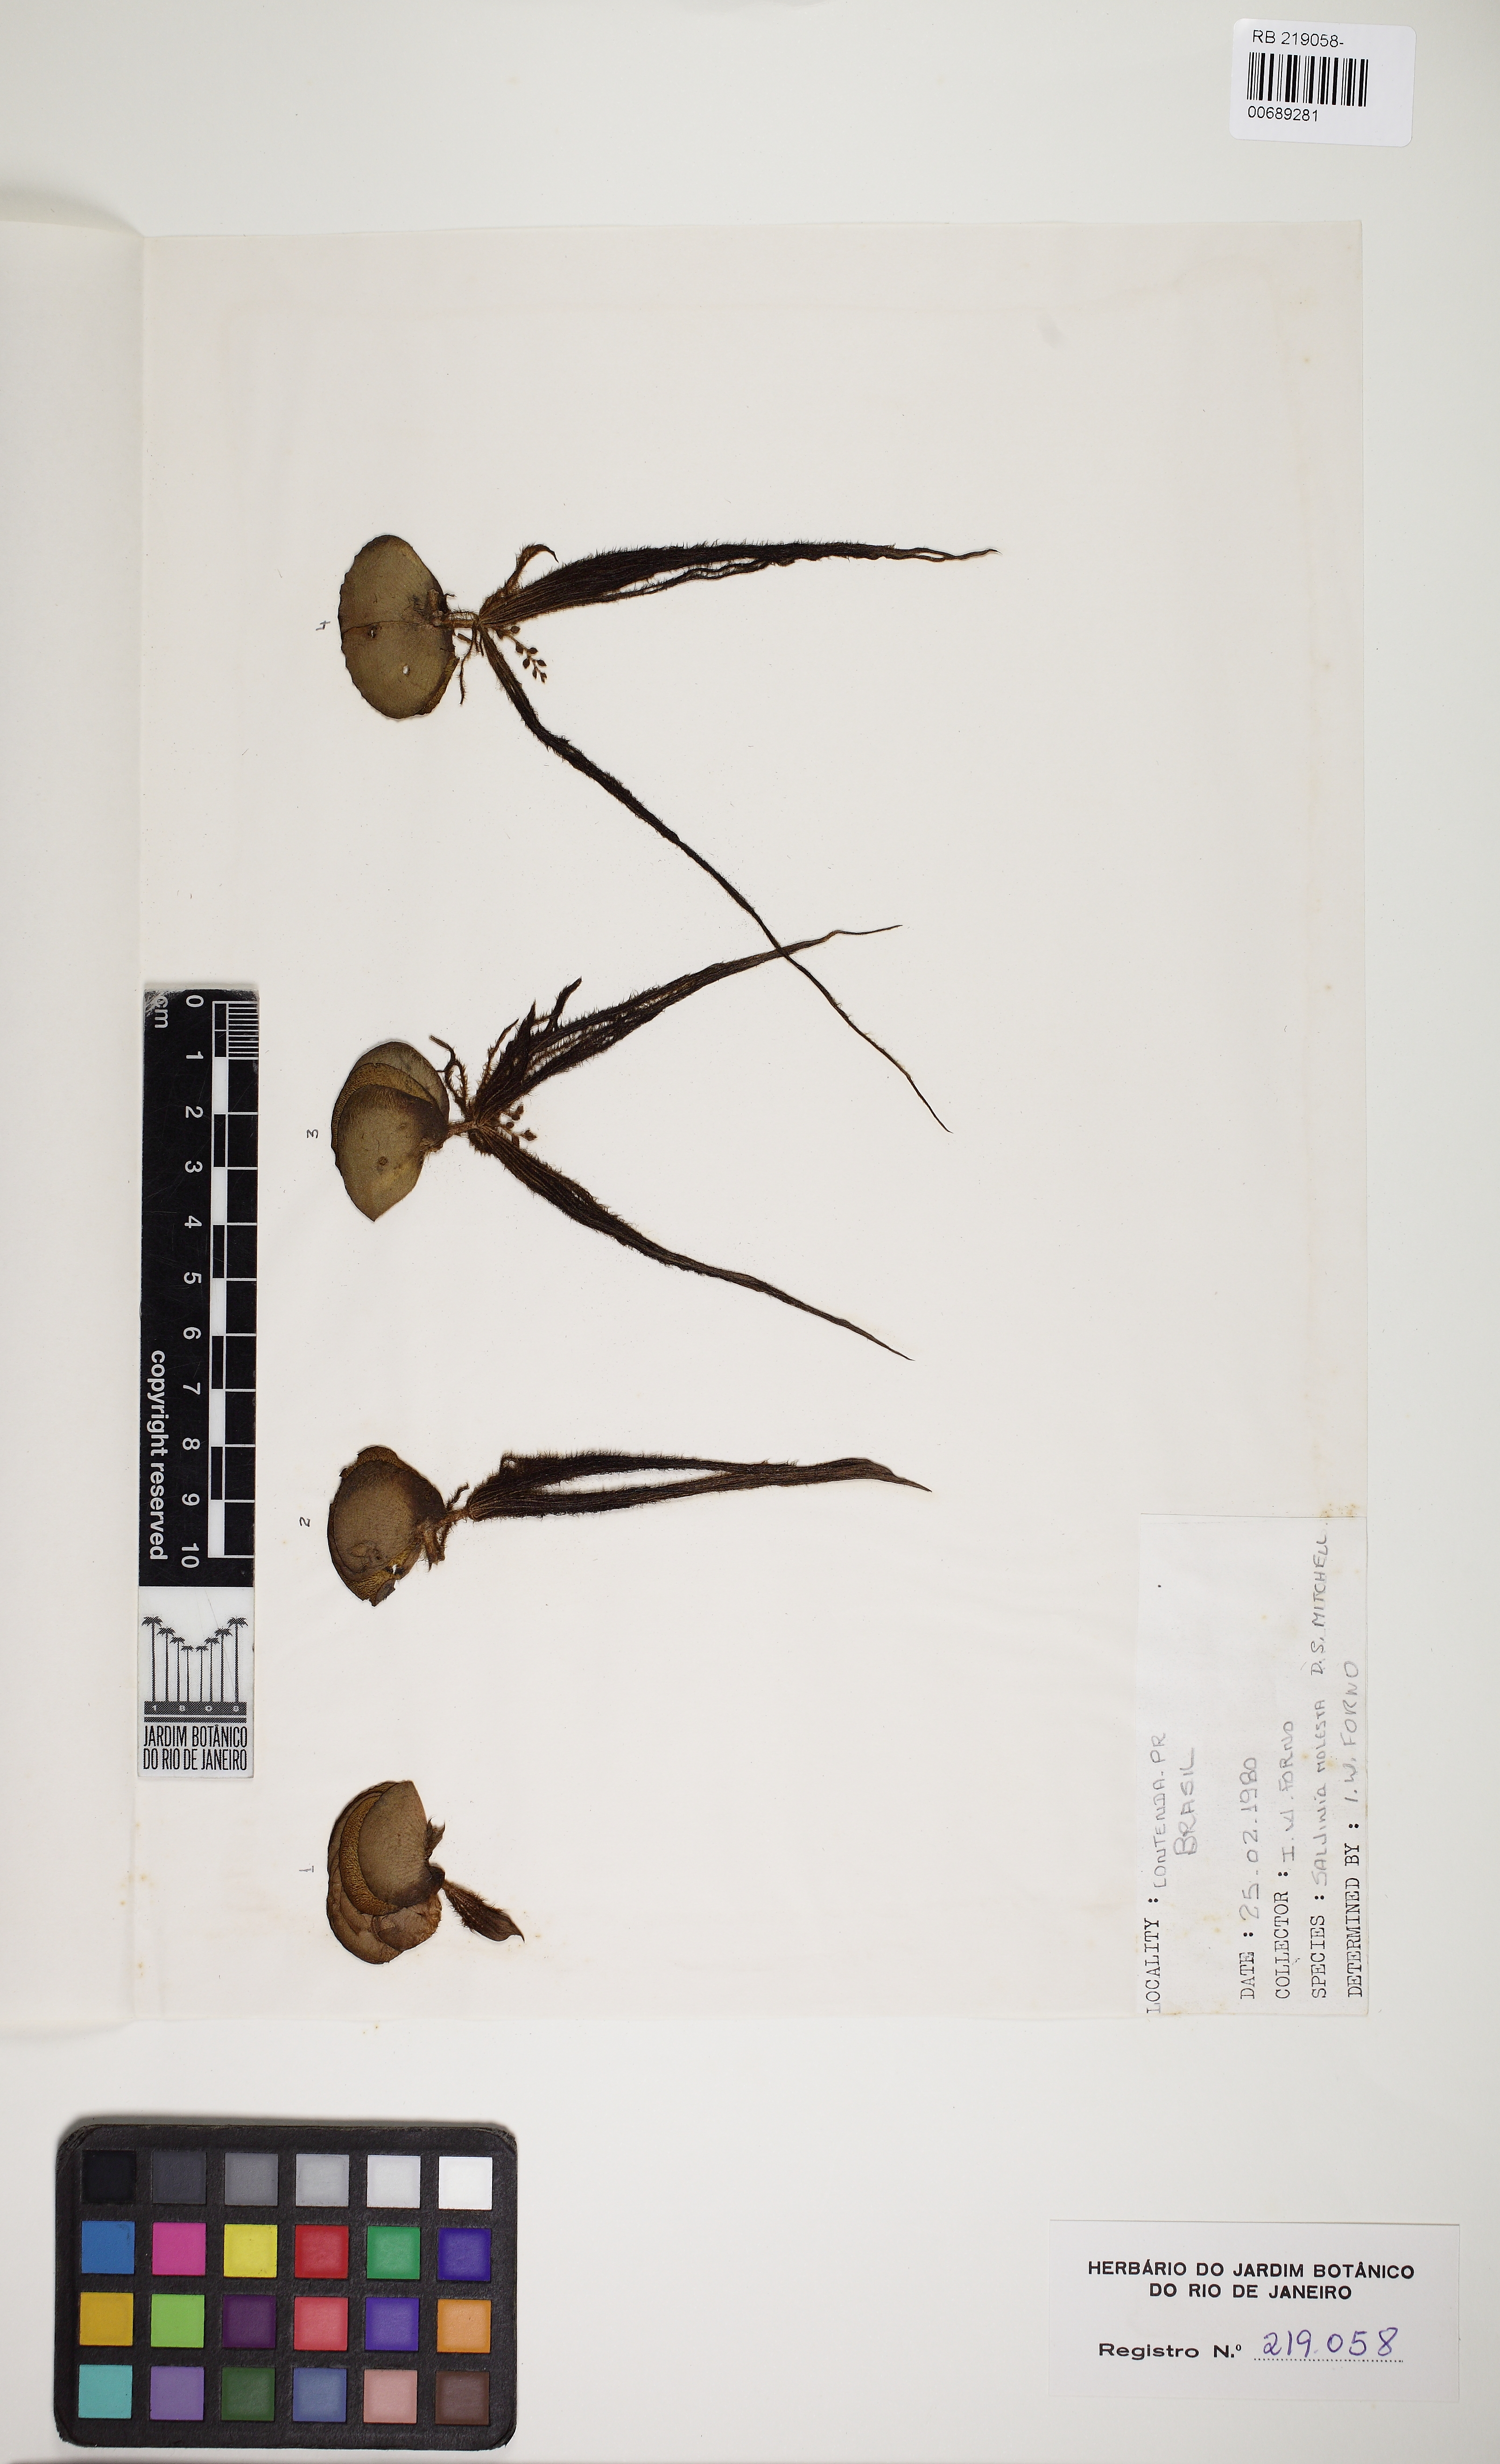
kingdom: Plantae
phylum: Tracheophyta
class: Polypodiopsida
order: Salviniales
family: Salviniaceae
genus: Salvinia
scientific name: Salvinia molesta
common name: Kariba weed
